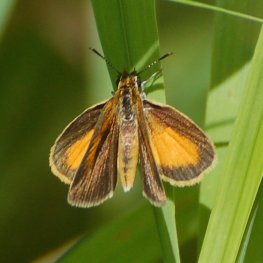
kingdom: Animalia
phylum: Arthropoda
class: Insecta
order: Lepidoptera
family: Hesperiidae
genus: Ancyloxypha
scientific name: Ancyloxypha numitor
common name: Least Skipper
